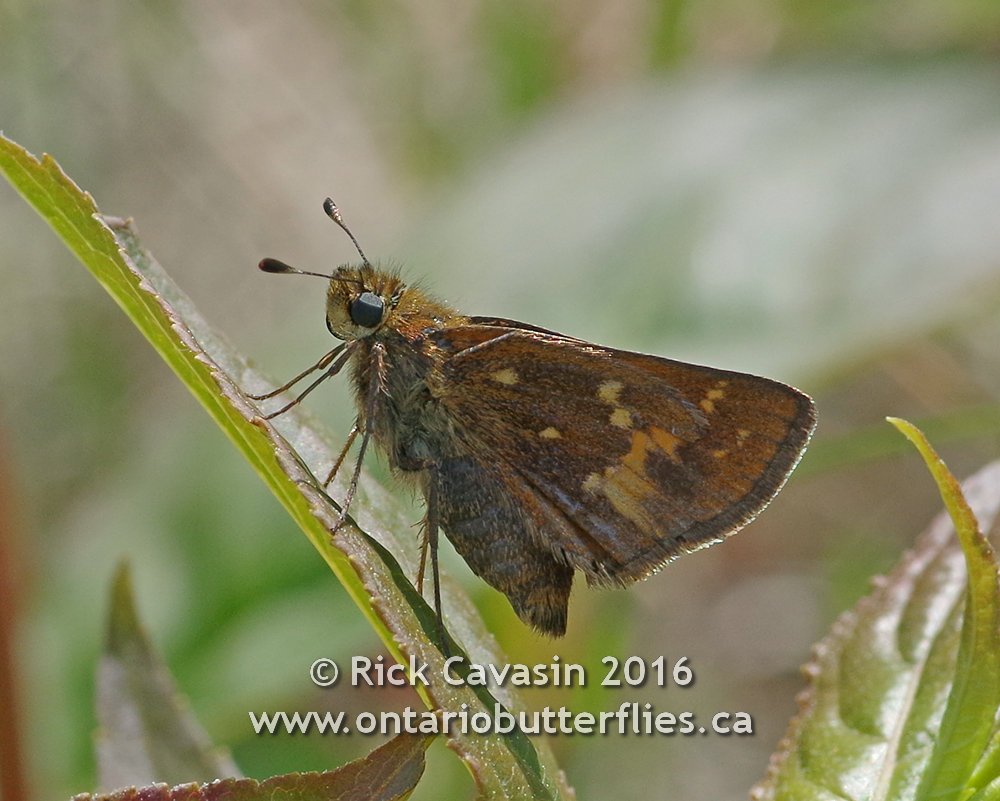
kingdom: Animalia
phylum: Arthropoda
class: Insecta
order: Lepidoptera
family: Hesperiidae
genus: Hesperia
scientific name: Hesperia sassacus
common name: Sassacus Skipper
